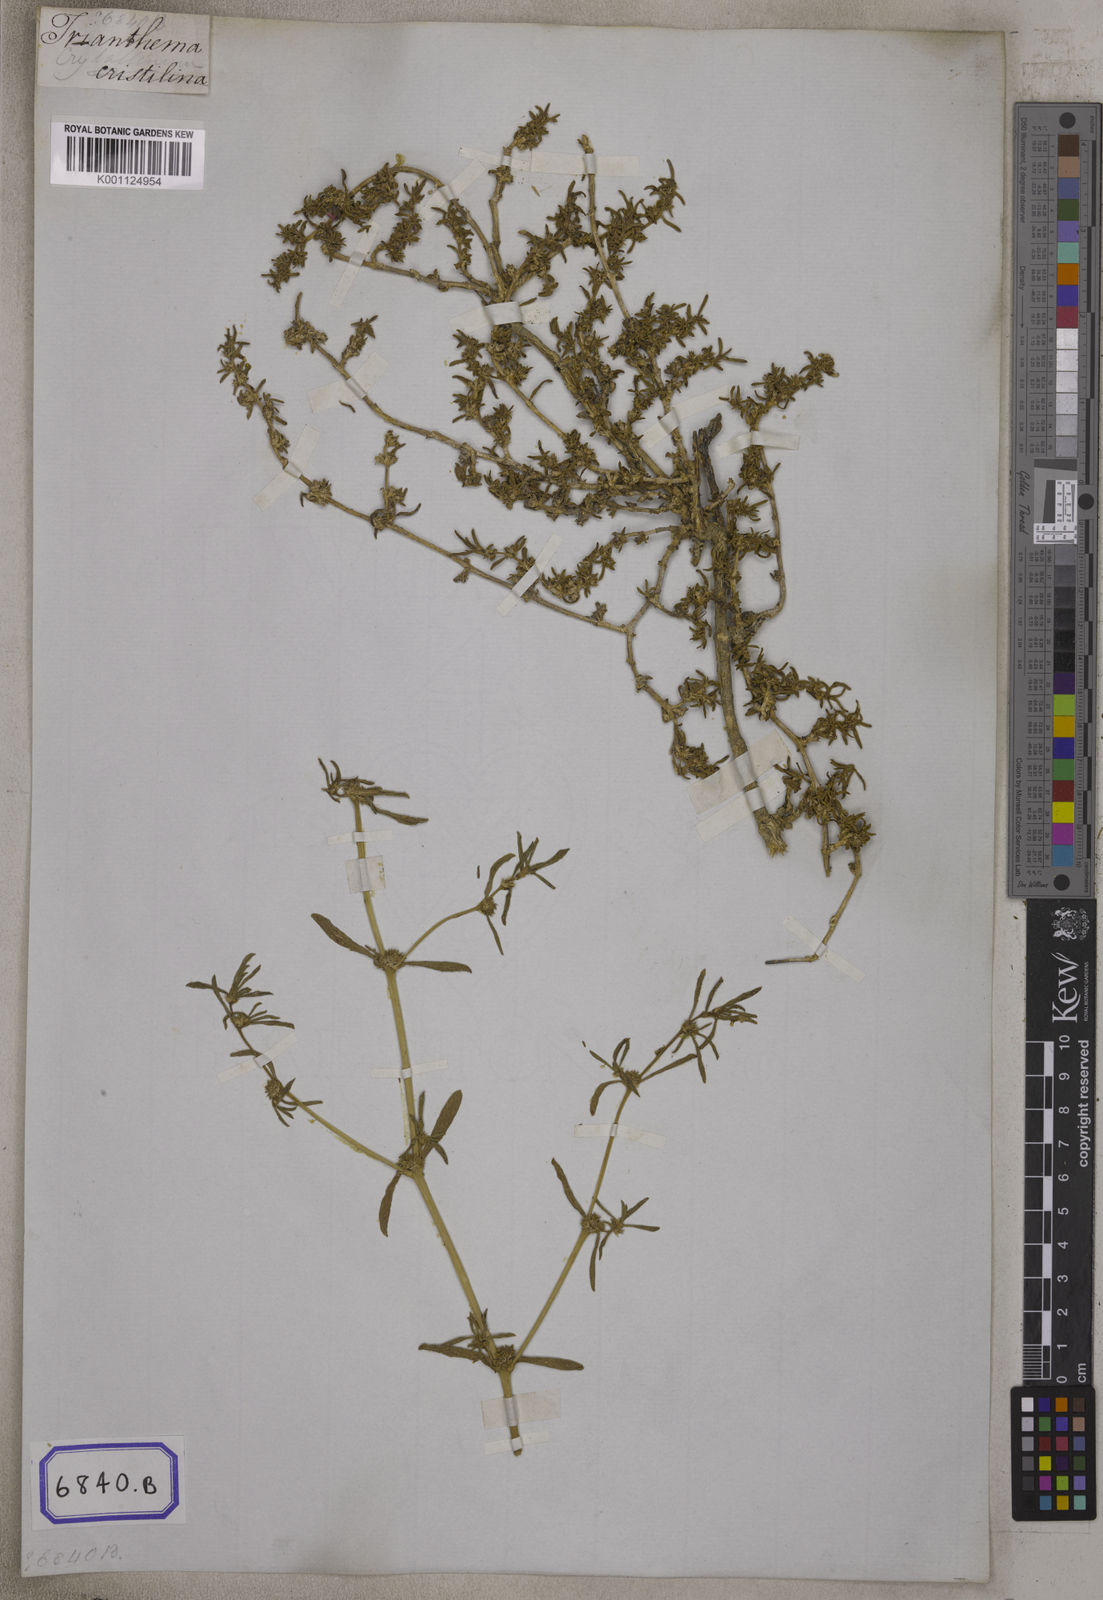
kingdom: Plantae
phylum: Tracheophyta
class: Magnoliopsida
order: Caryophyllales
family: Aizoaceae
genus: Trianthema
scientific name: Trianthema crystallinum
